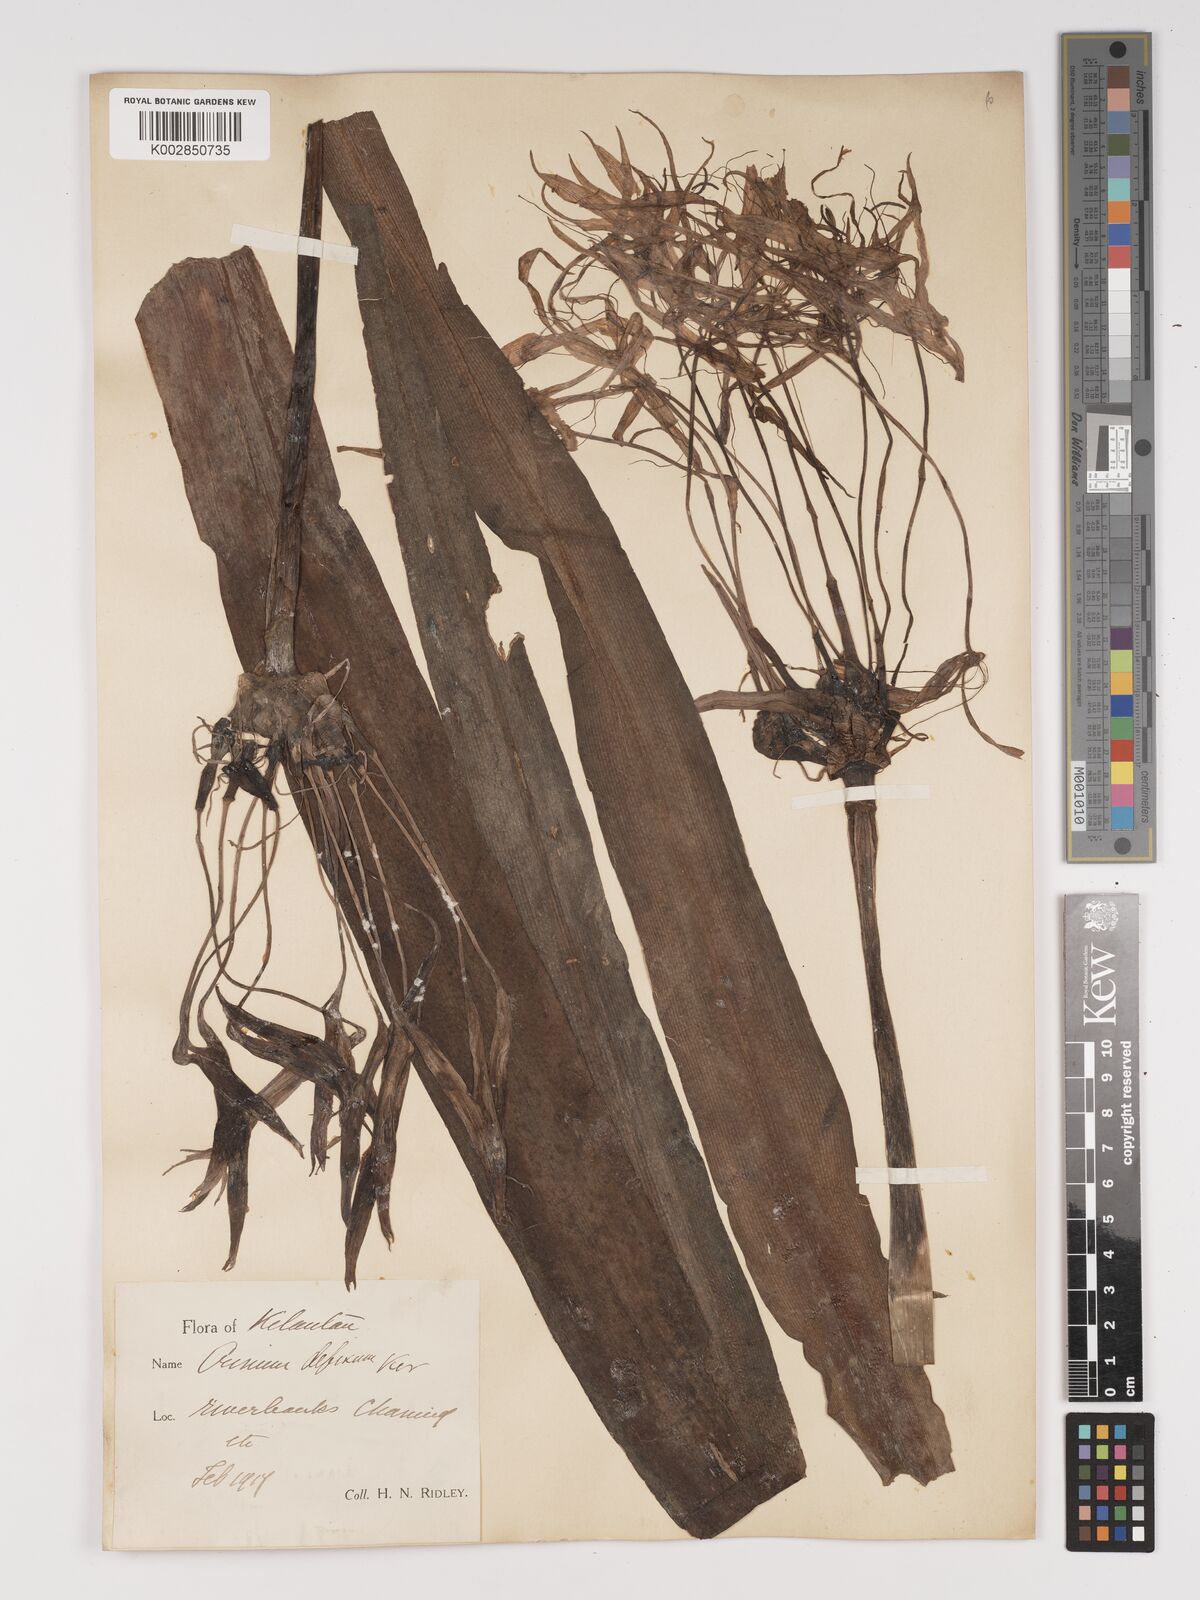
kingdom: Plantae
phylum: Tracheophyta
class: Liliopsida
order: Asparagales
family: Amaryllidaceae
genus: Crinum
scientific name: Crinum asiaticum
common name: Poisonbulb
